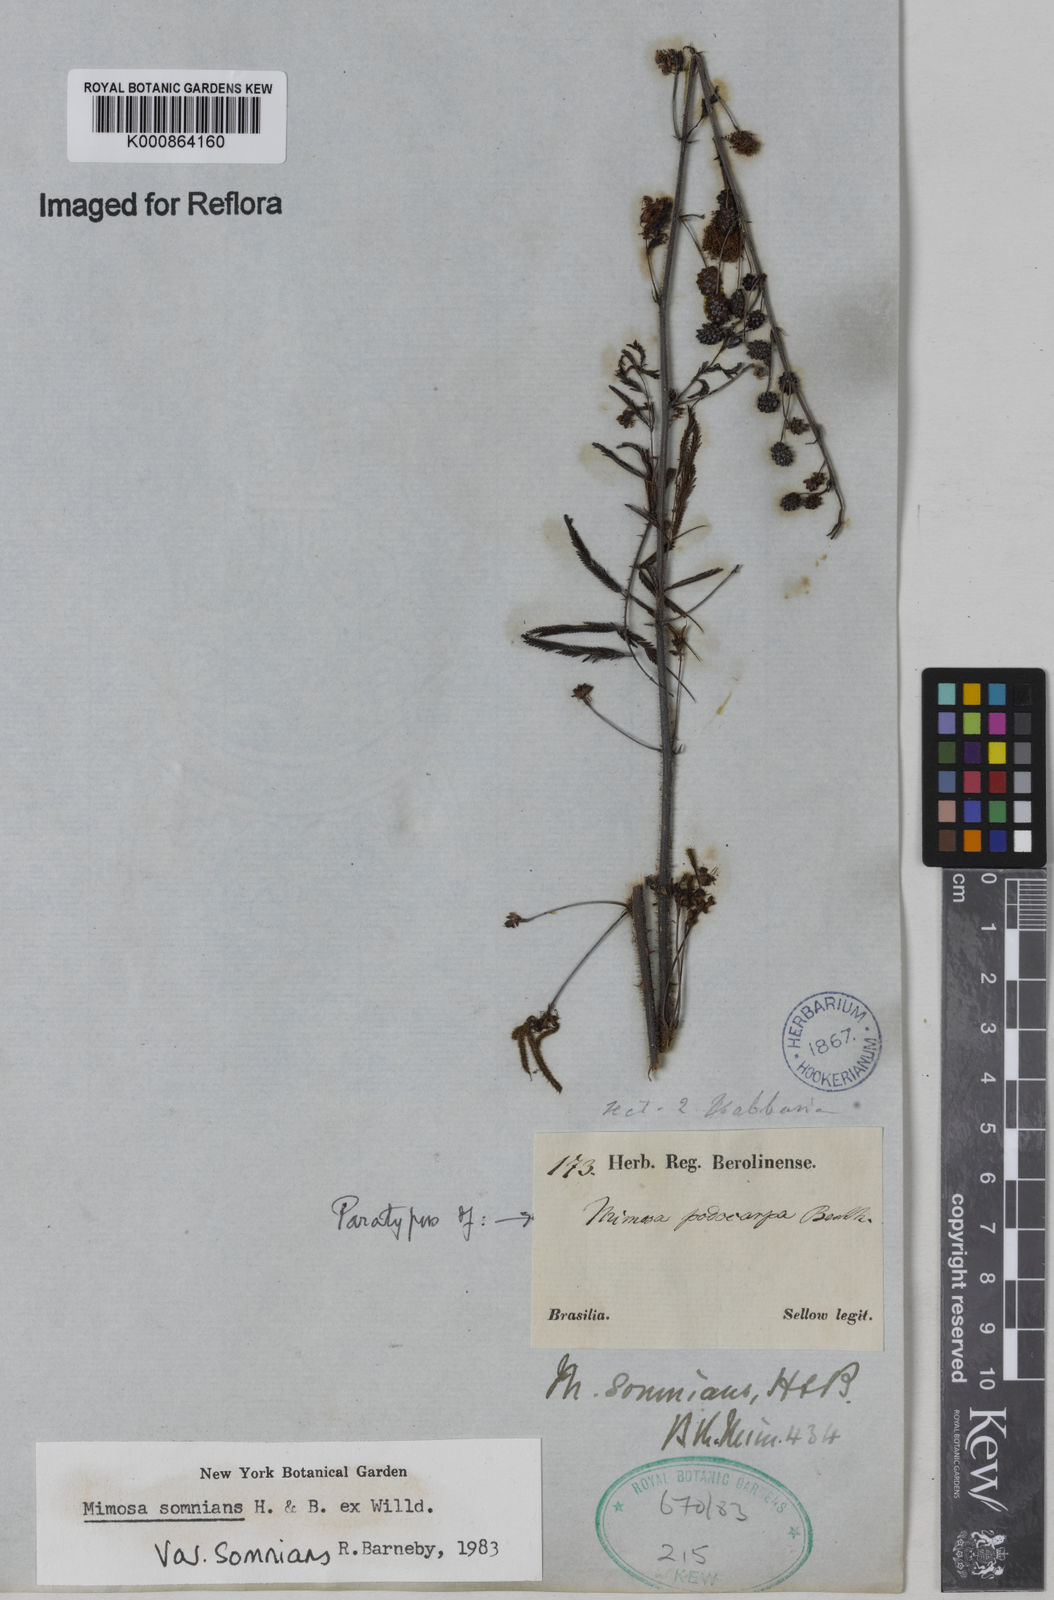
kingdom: Plantae
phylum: Tracheophyta
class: Magnoliopsida
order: Fabales
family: Fabaceae
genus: Mimosa
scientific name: Mimosa somnians
